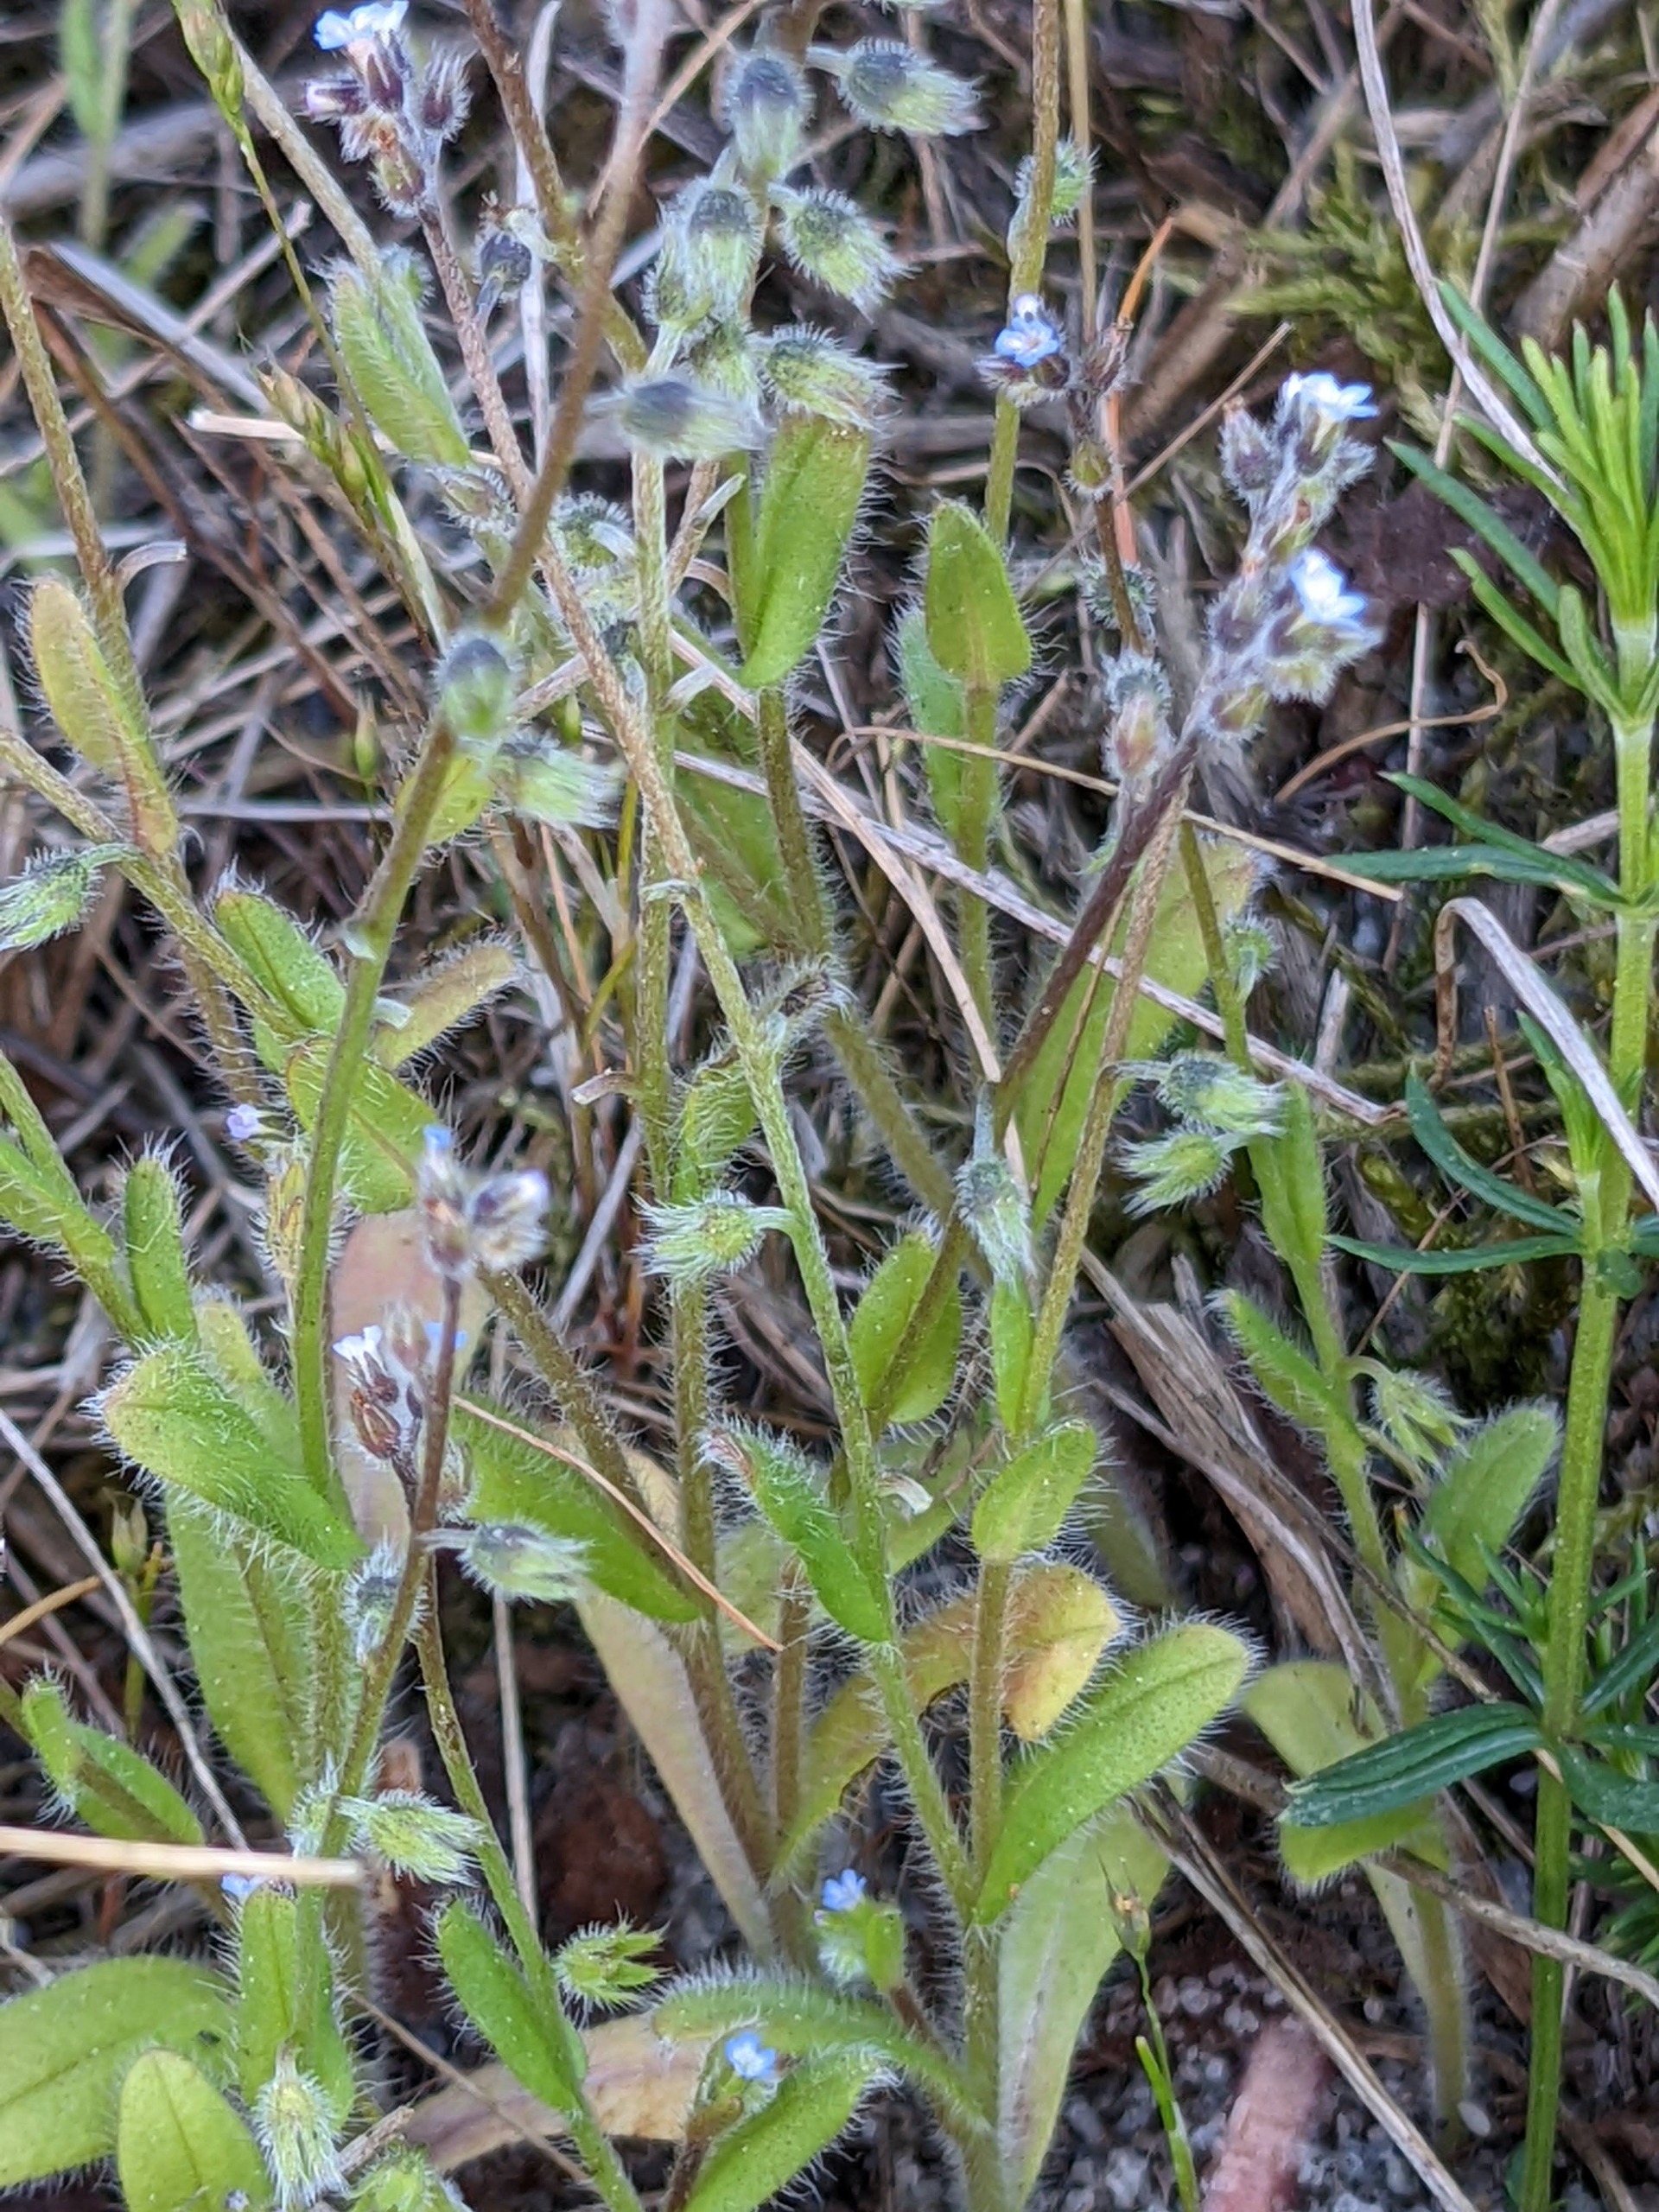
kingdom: Plantae
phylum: Tracheophyta
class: Magnoliopsida
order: Boraginales
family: Boraginaceae
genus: Myosotis
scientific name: Myosotis ramosissima
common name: Bakke-forglemmigej
